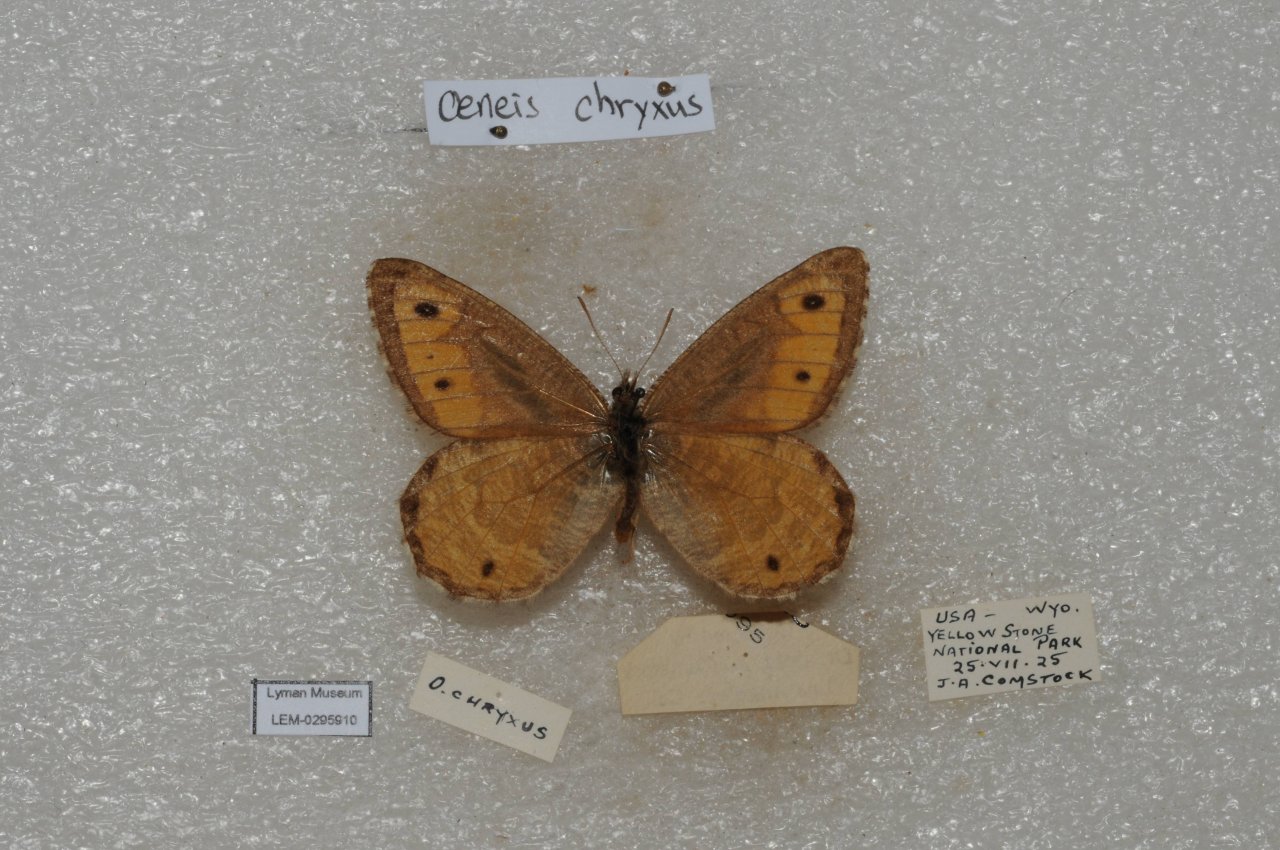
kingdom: Animalia
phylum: Arthropoda
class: Insecta
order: Lepidoptera
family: Nymphalidae
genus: Oeneis
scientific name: Oeneis chryxus
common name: Chryxus Arctic
